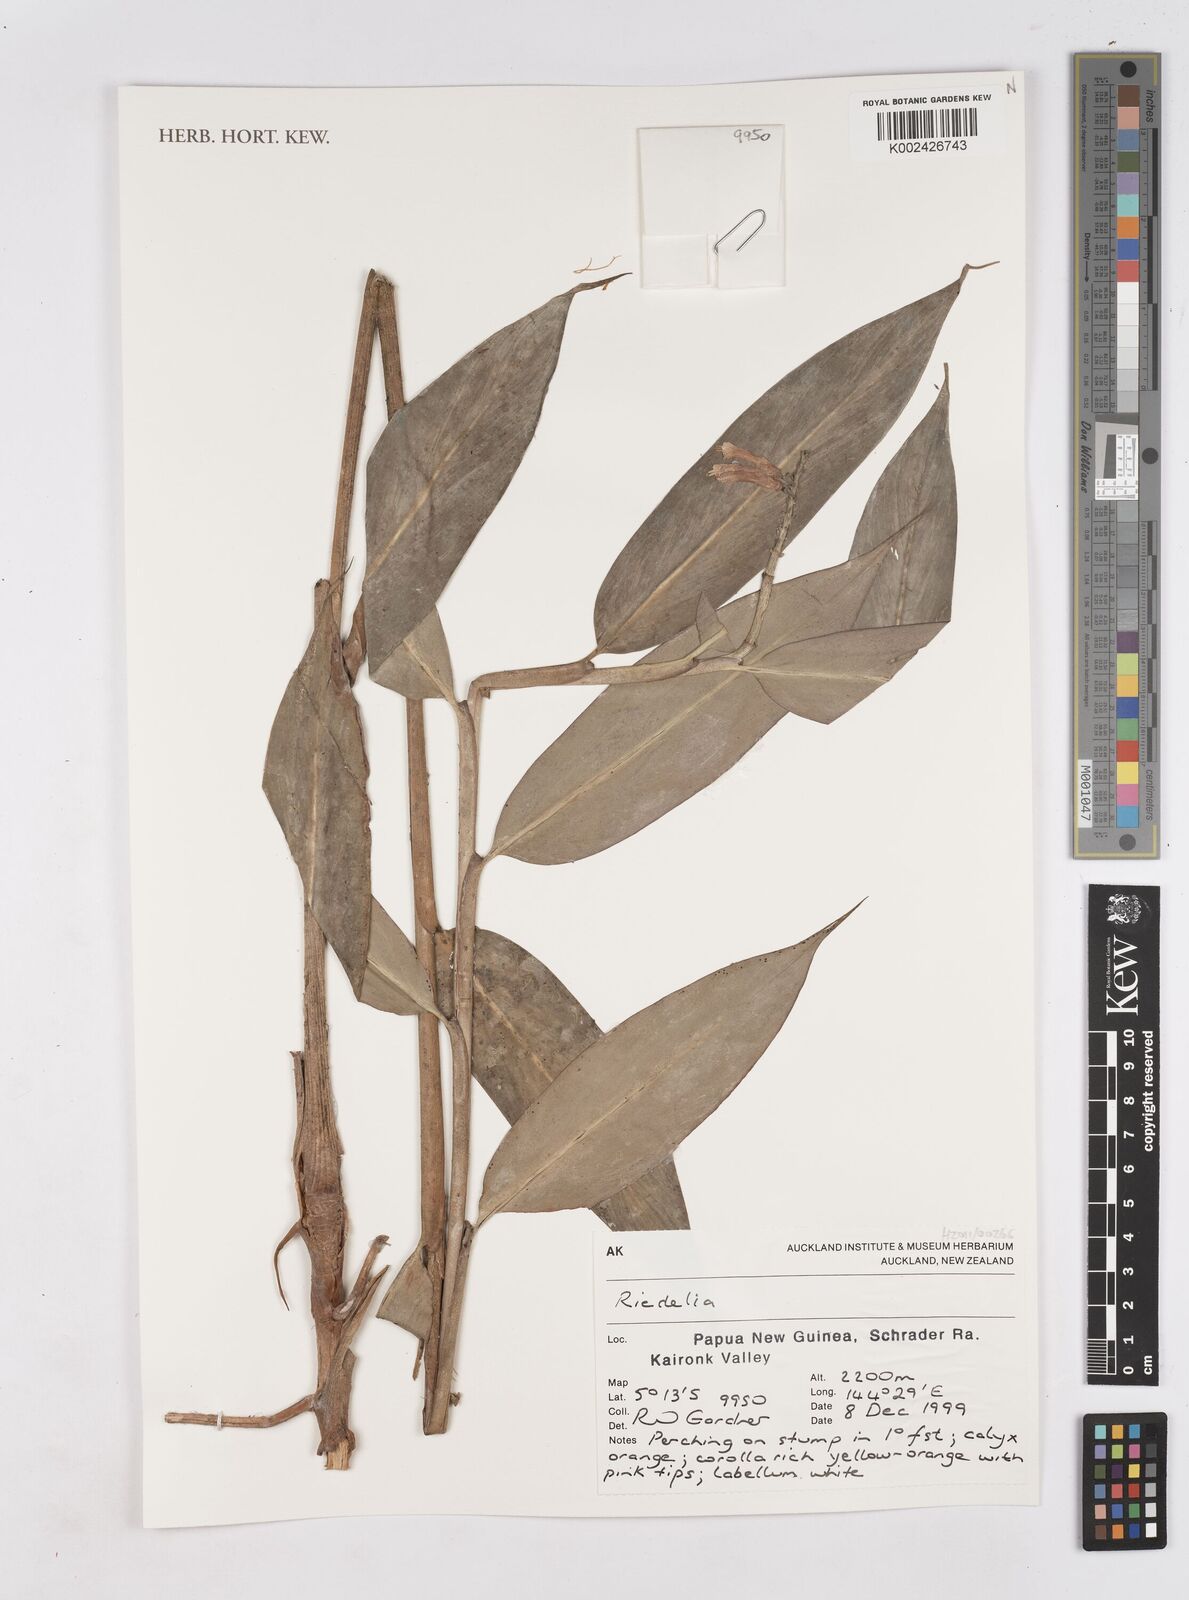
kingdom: Plantae
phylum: Tracheophyta
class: Liliopsida
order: Zingiberales
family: Zingiberaceae
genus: Riedelia
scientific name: Riedelia
